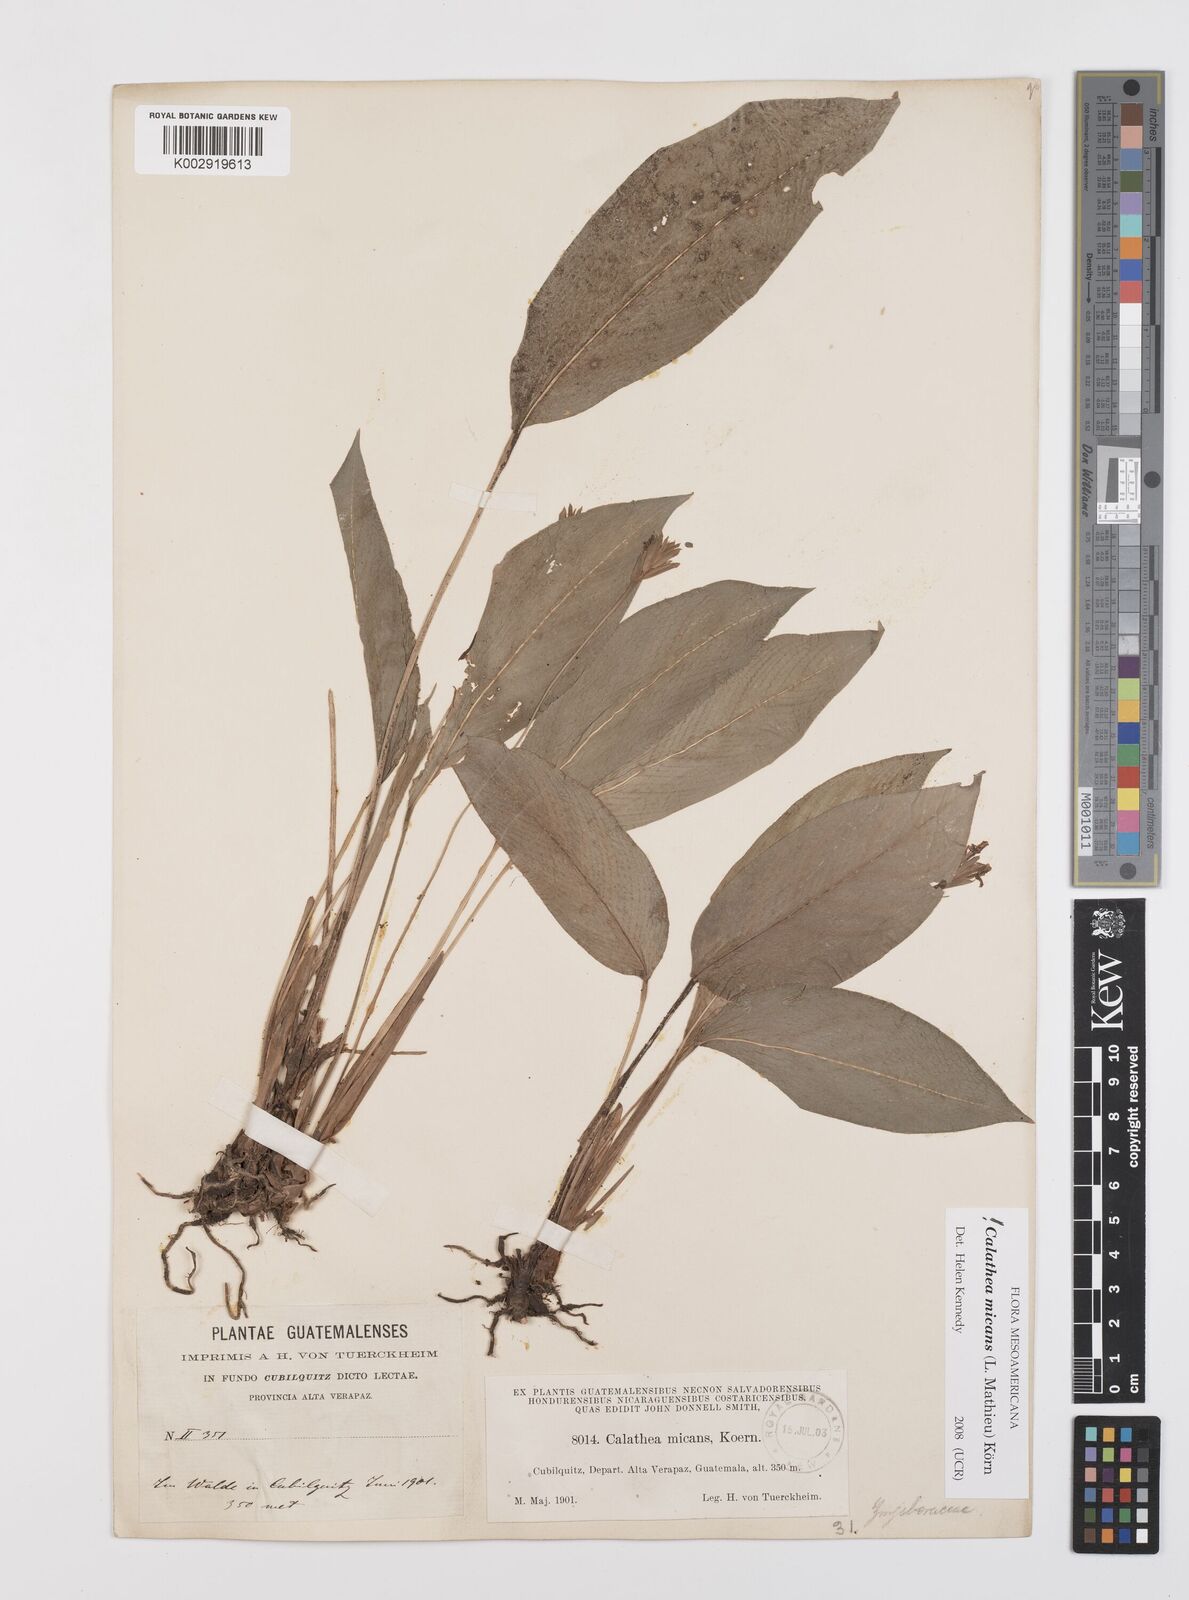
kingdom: Plantae
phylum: Tracheophyta
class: Liliopsida
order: Zingiberales
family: Marantaceae
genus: Goeppertia
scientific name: Goeppertia micans
